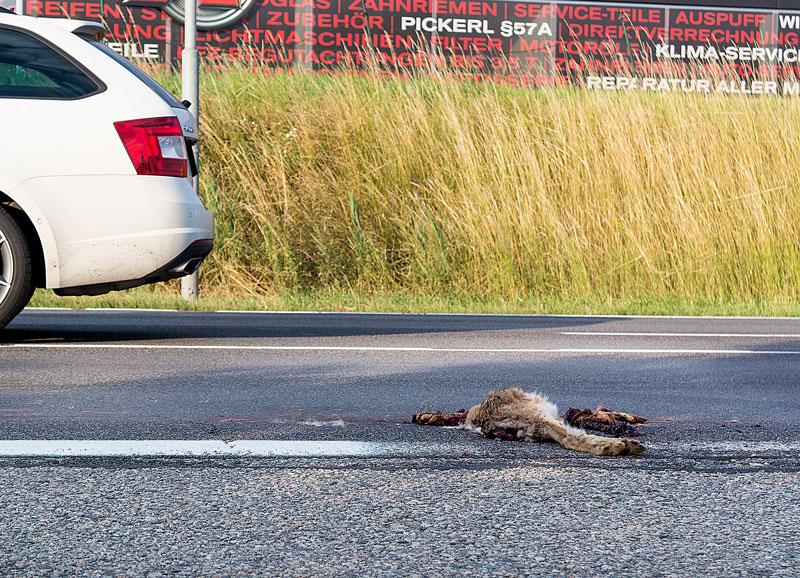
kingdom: Animalia
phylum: Chordata
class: Mammalia
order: Lagomorpha
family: Leporidae
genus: Lepus
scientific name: Lepus europaeus
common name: European hare
